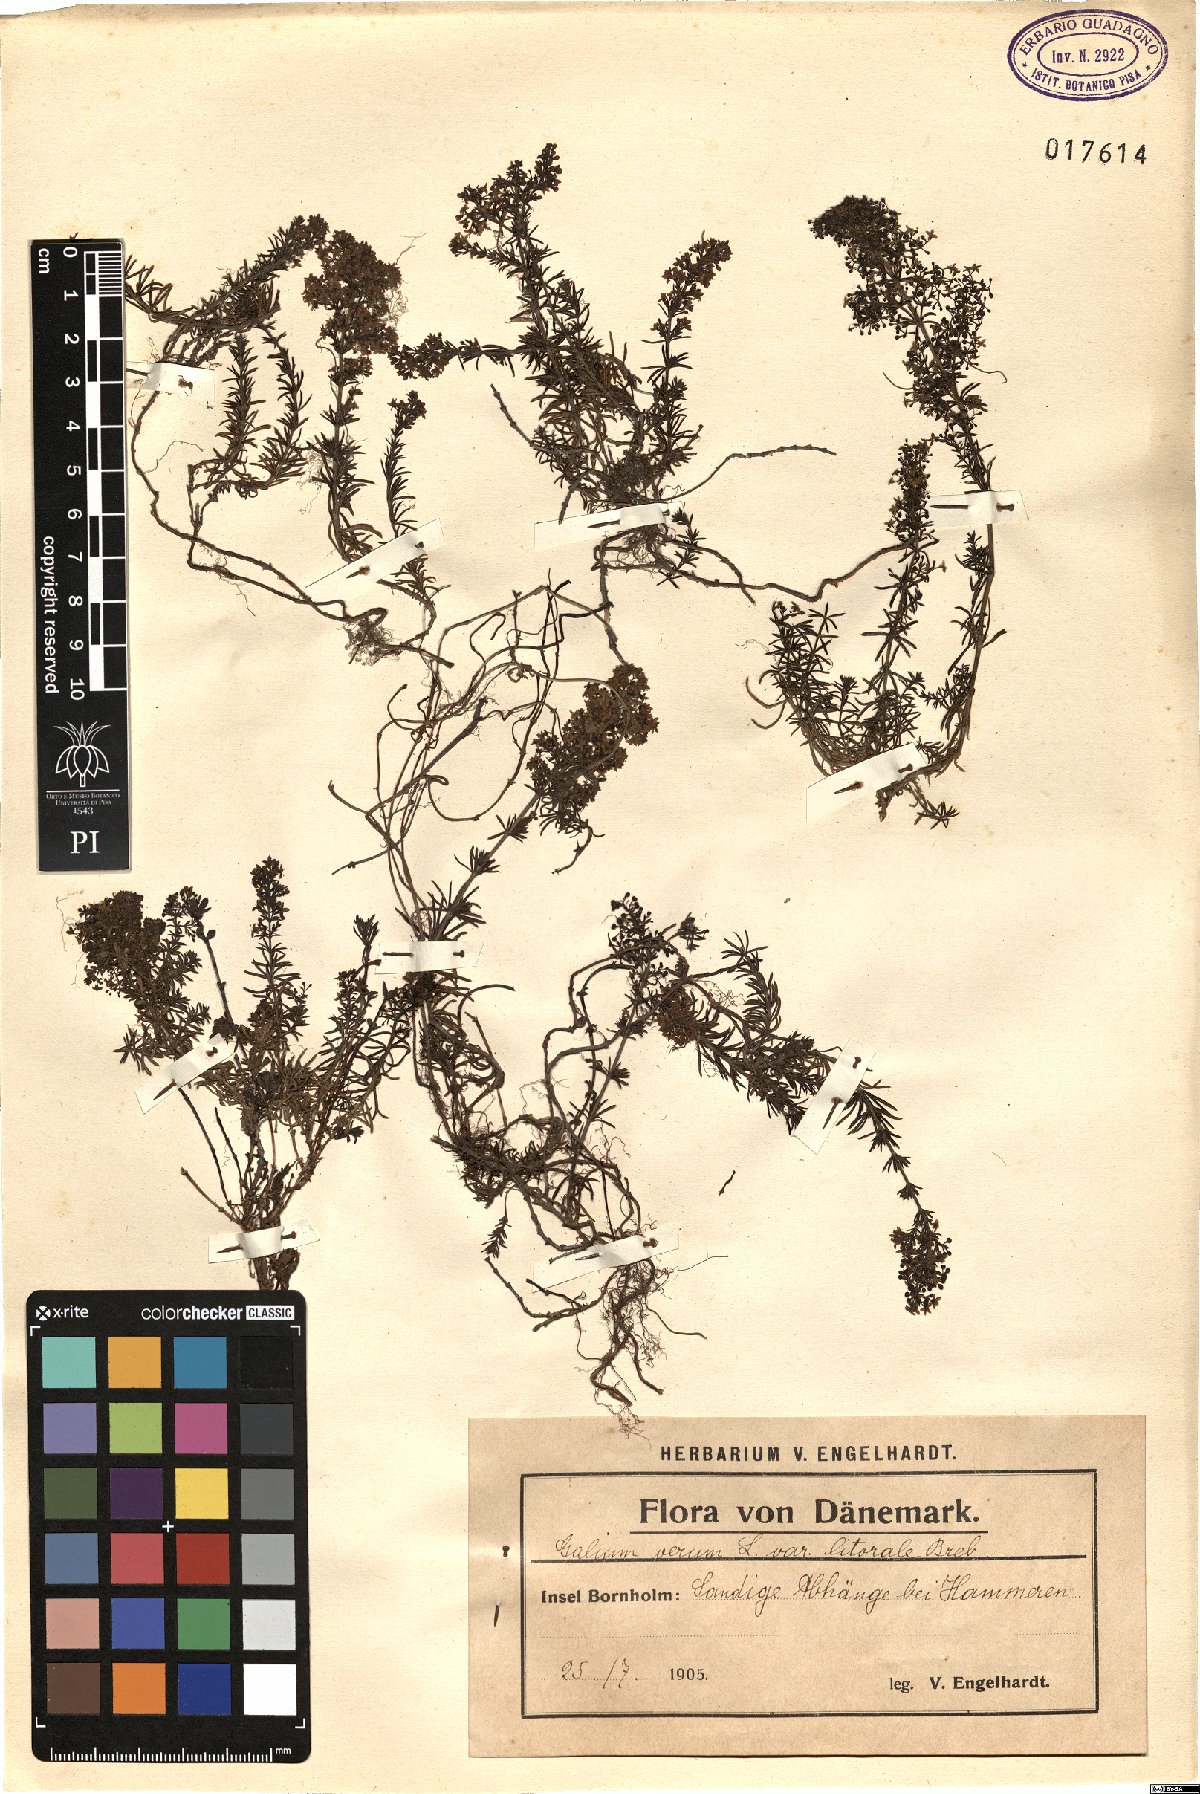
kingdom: Plantae
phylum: Tracheophyta
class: Magnoliopsida
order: Gentianales
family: Rubiaceae
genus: Galium
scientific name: Galium verum
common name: Lady's bedstraw
